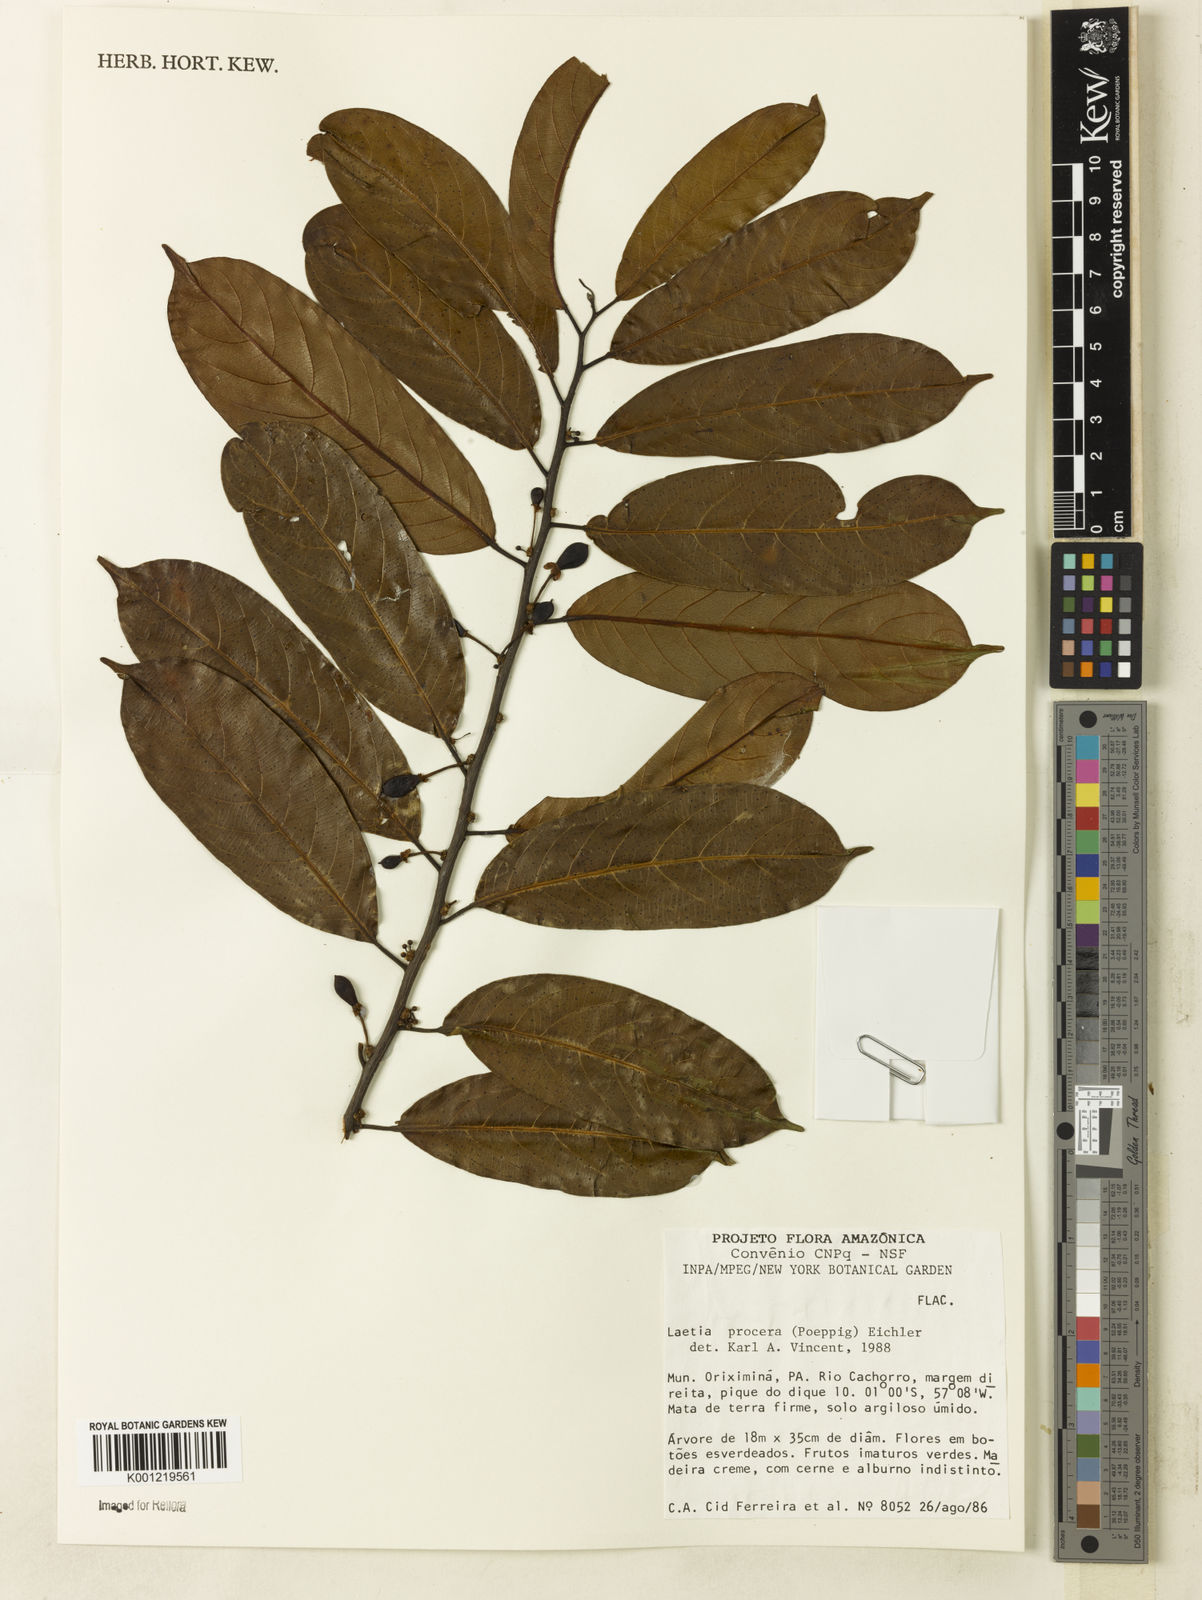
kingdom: Plantae
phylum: Tracheophyta
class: Magnoliopsida
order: Malpighiales
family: Salicaceae
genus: Casearia
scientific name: Casearia bicolor
